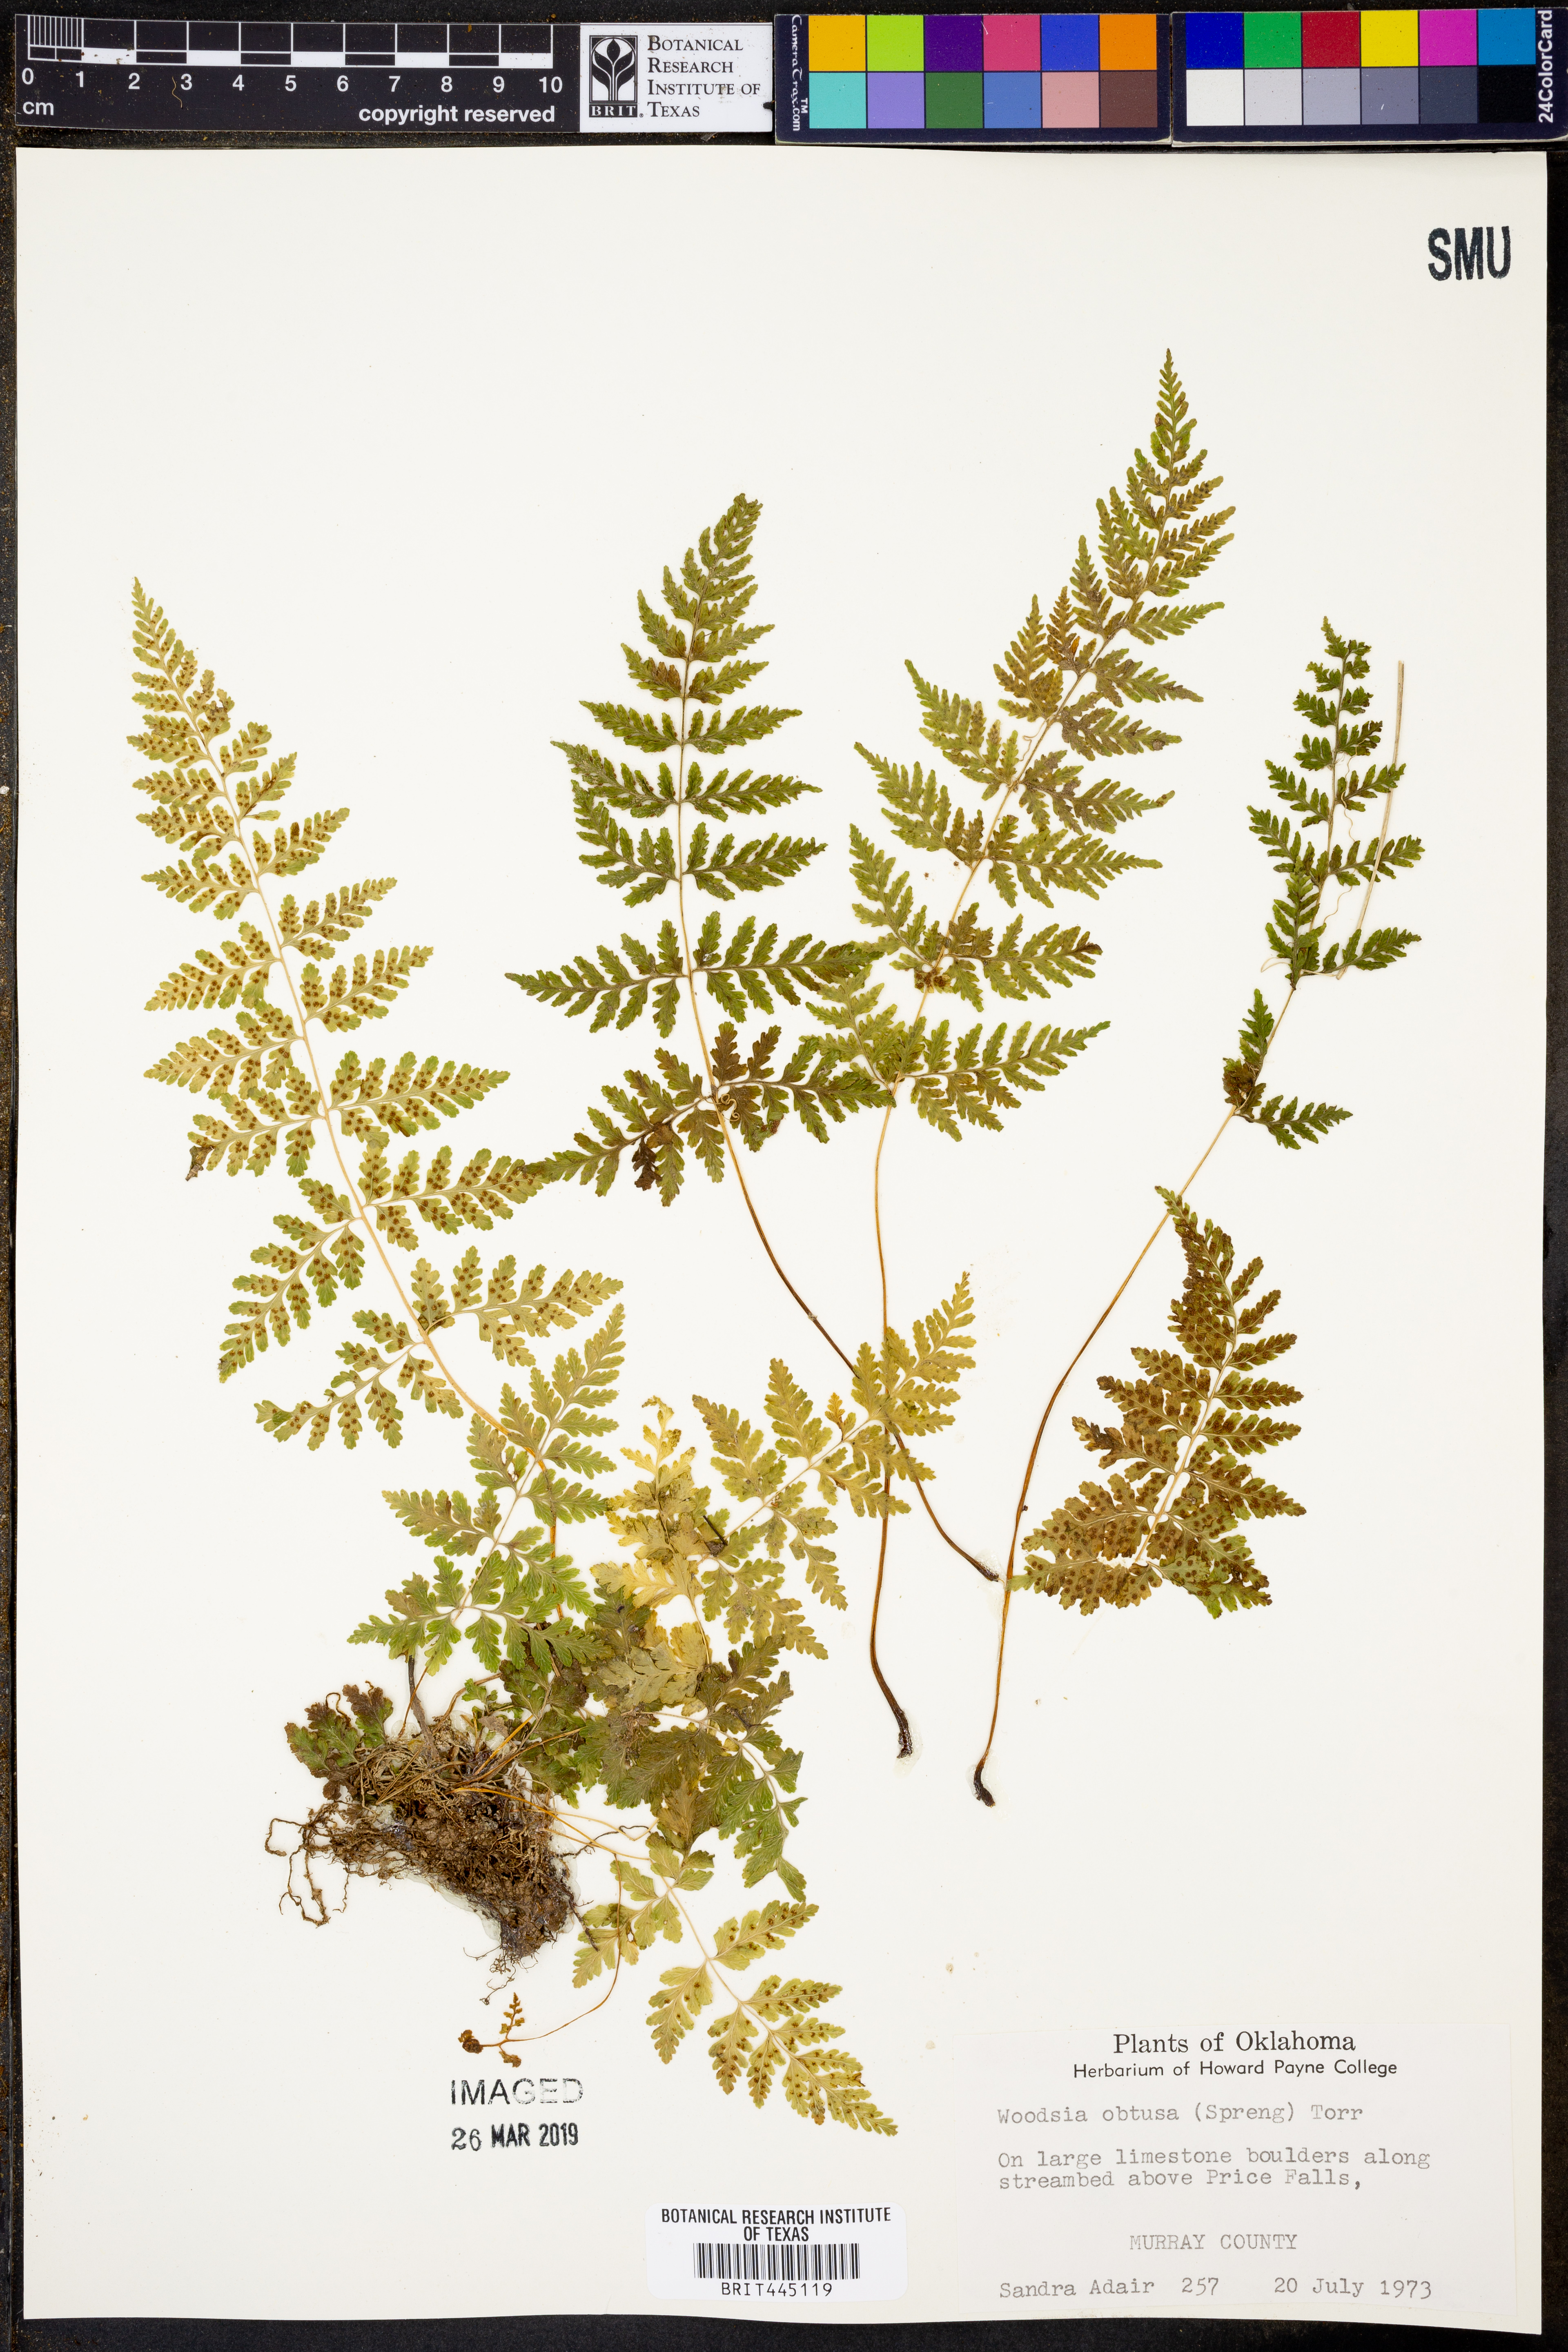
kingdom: Plantae
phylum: Tracheophyta
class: Polypodiopsida
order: Polypodiales
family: Woodsiaceae
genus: Physematium
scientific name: Physematium obtusum
